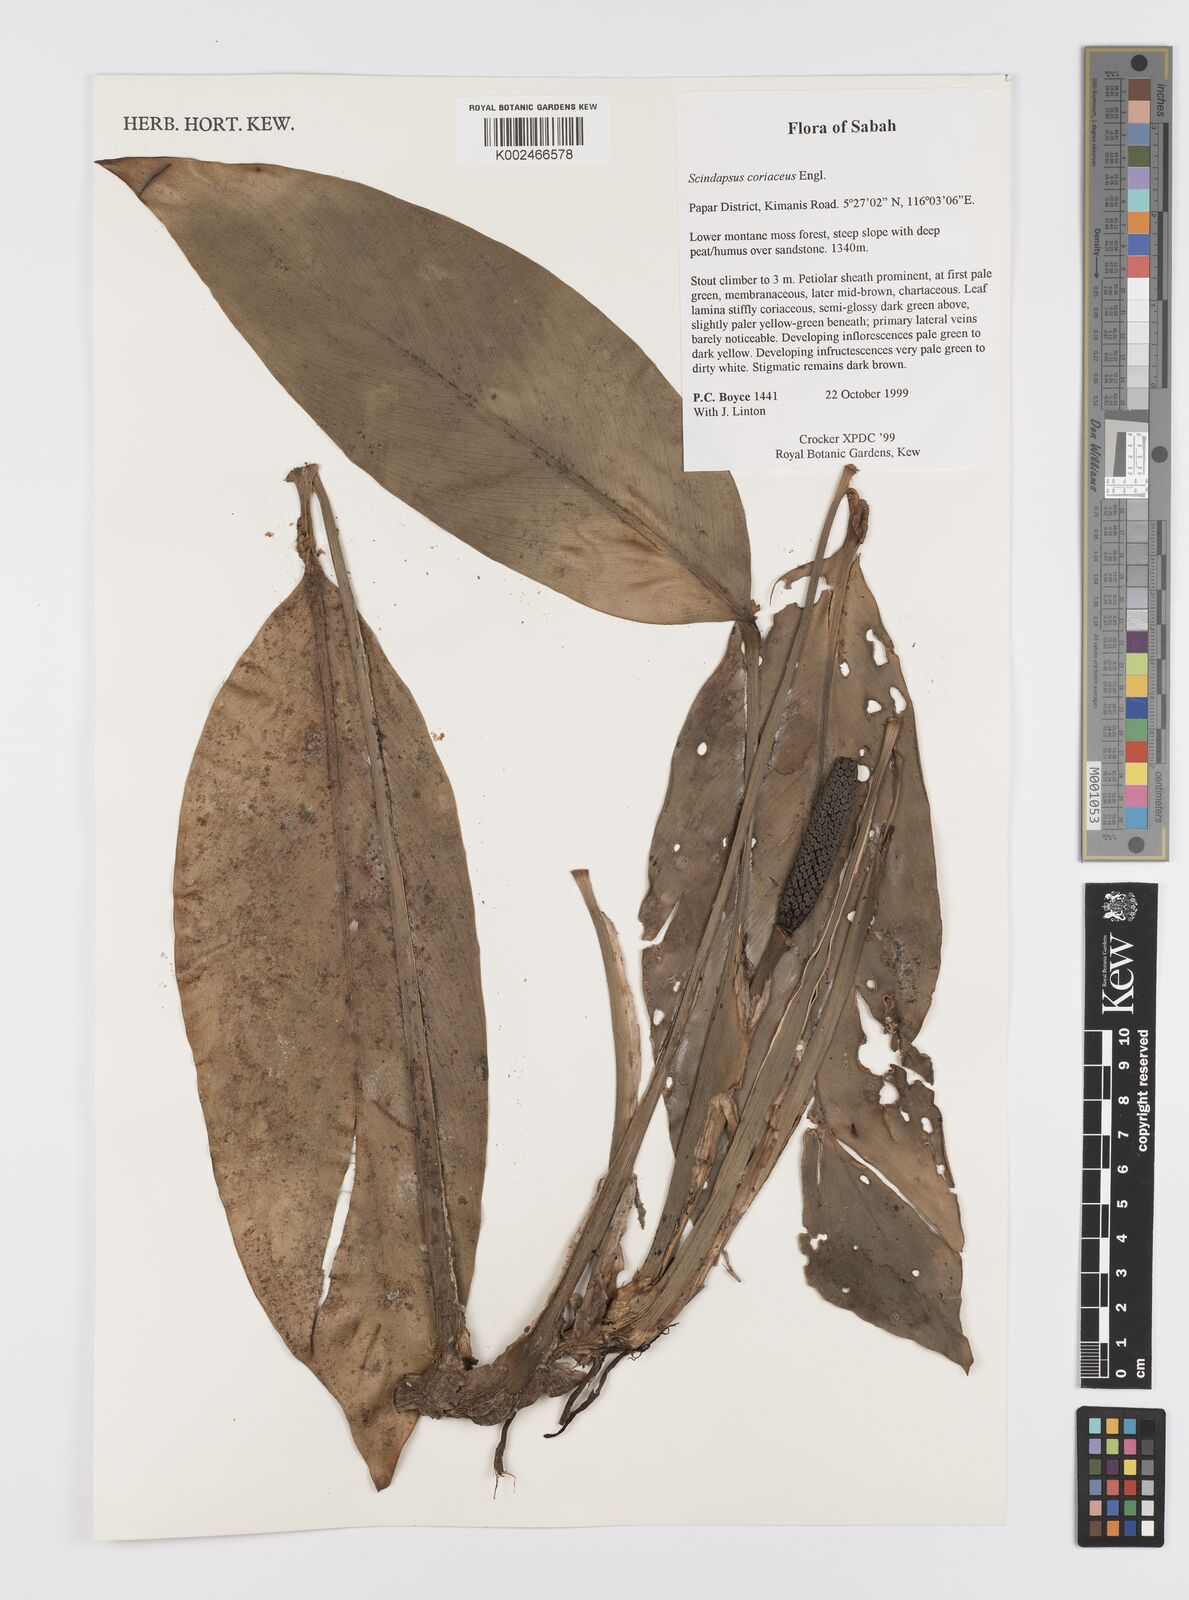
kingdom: Plantae
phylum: Tracheophyta
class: Liliopsida
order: Alismatales
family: Araceae
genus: Scindapsus
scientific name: Scindapsus coriaceus
